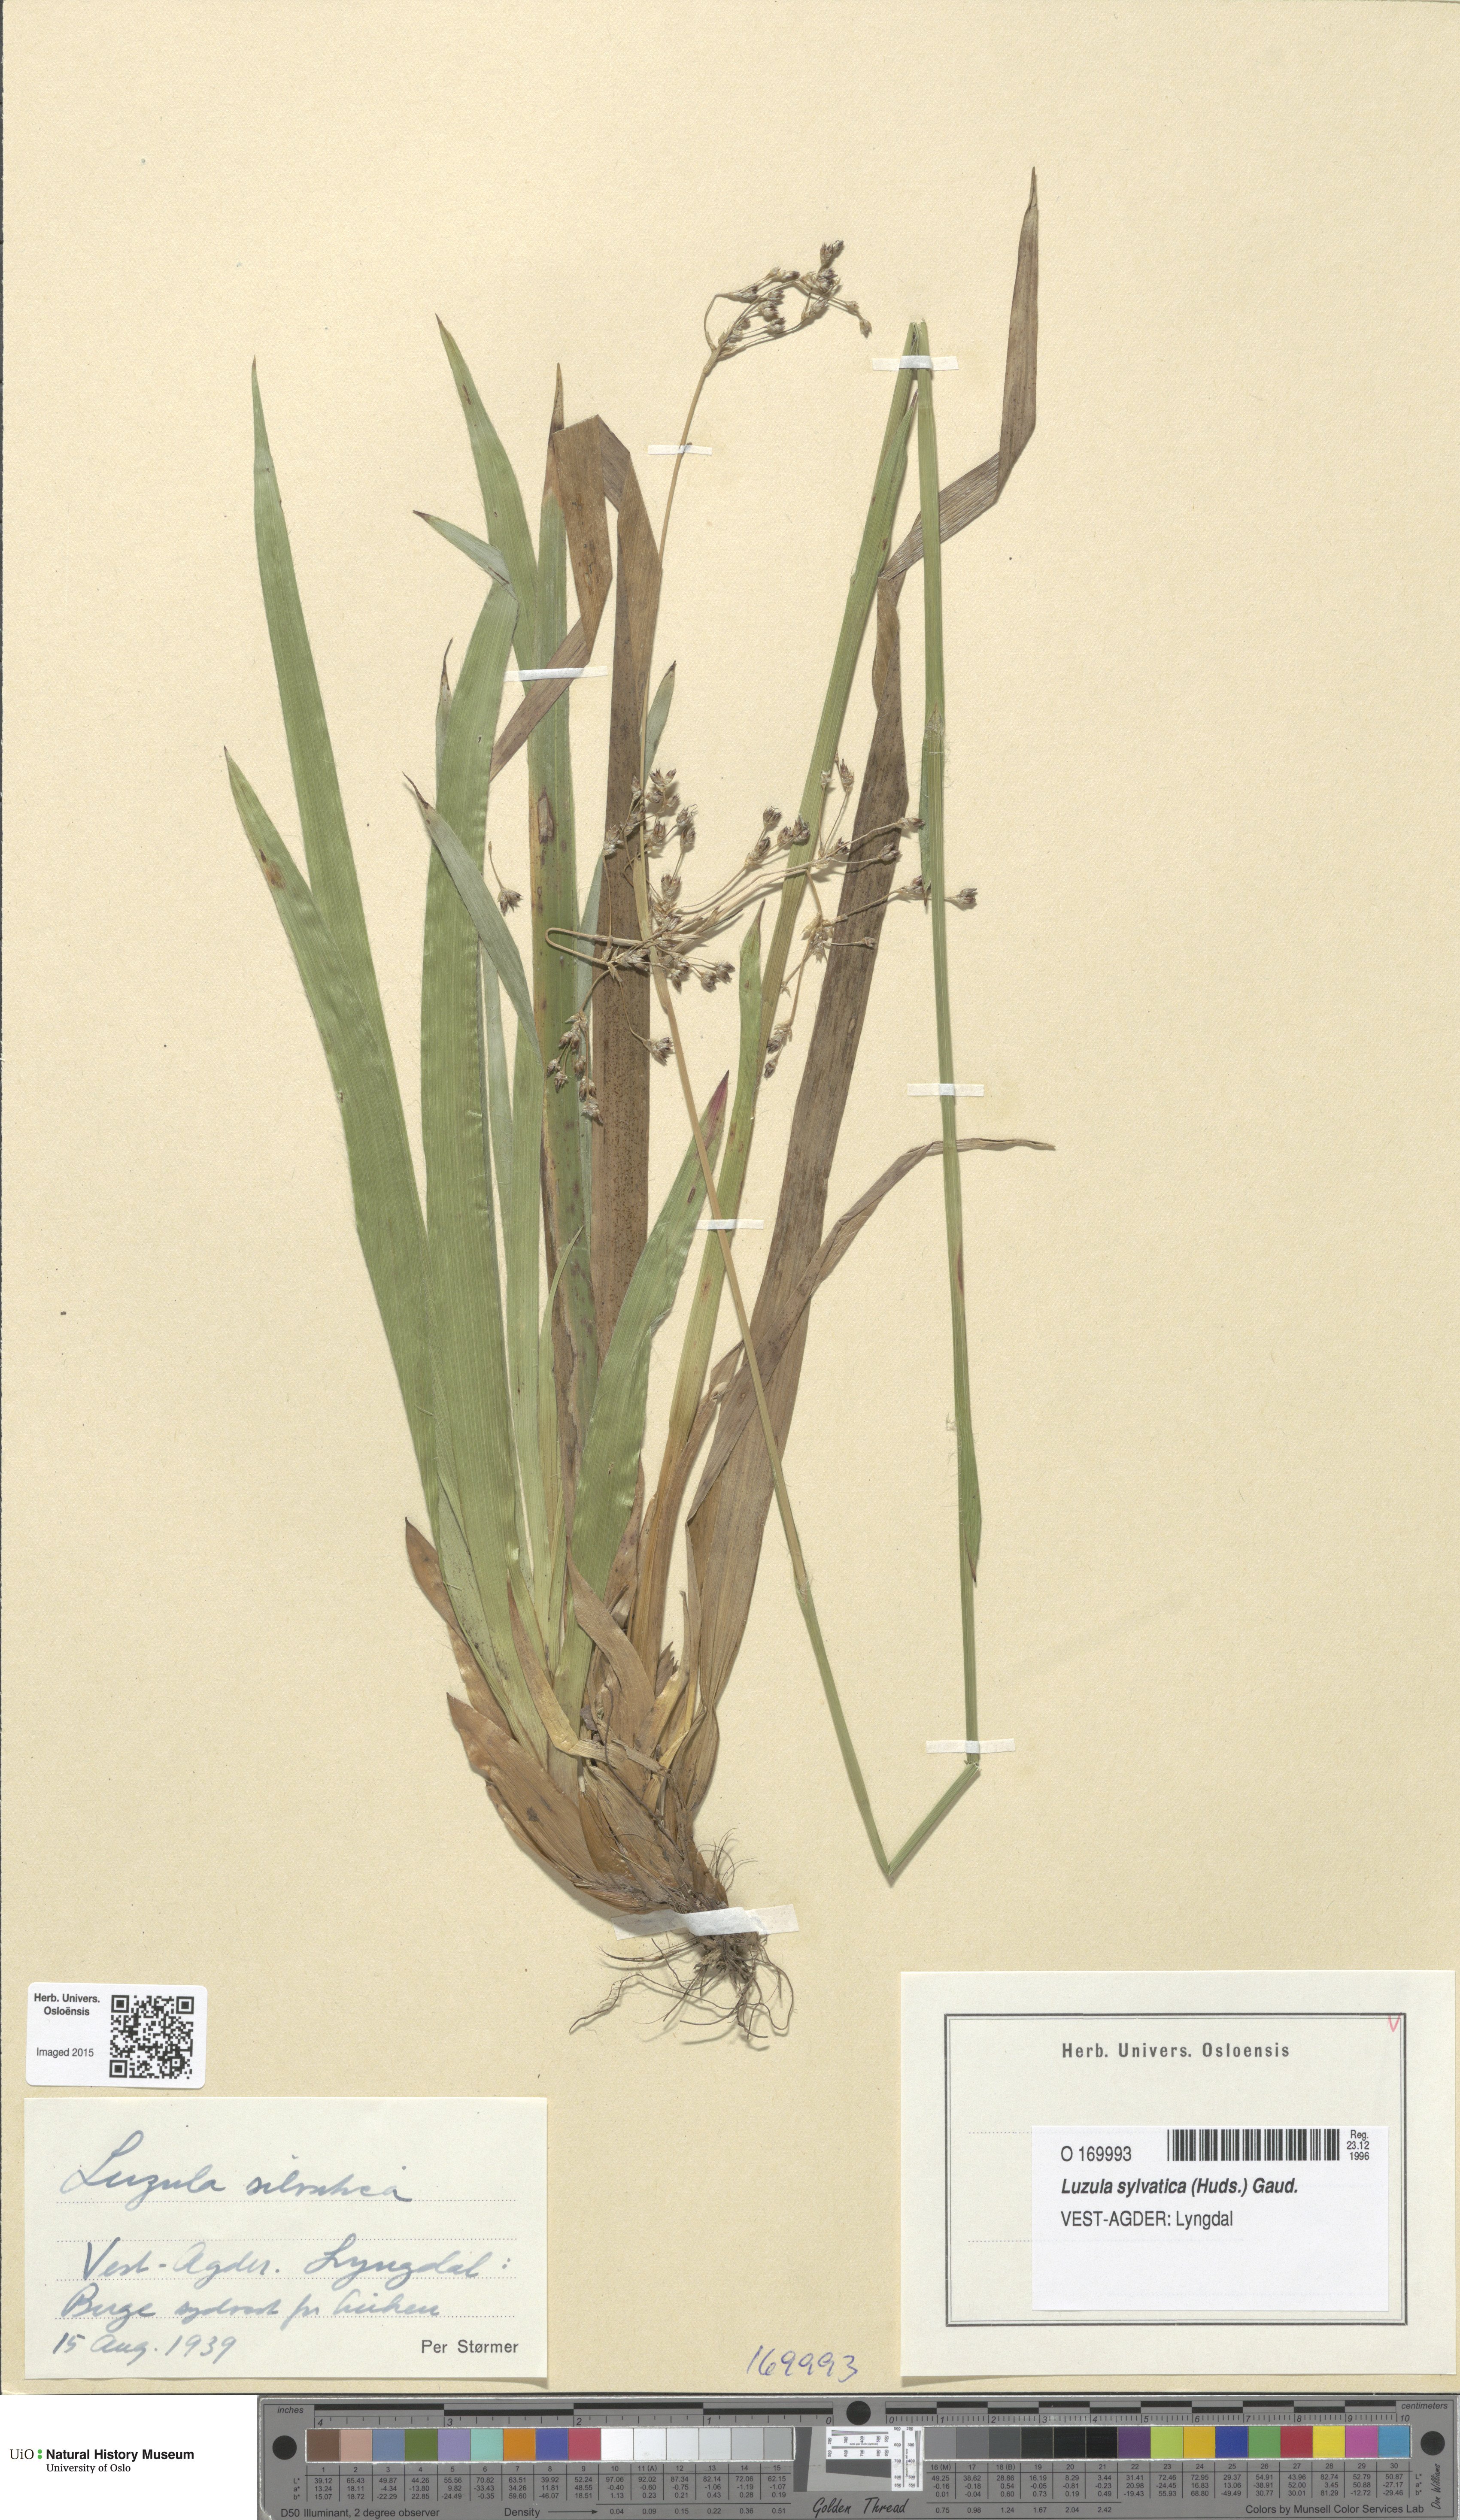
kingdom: Plantae
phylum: Tracheophyta
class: Liliopsida
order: Poales
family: Juncaceae
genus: Luzula
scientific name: Luzula sylvatica
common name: Great wood-rush
